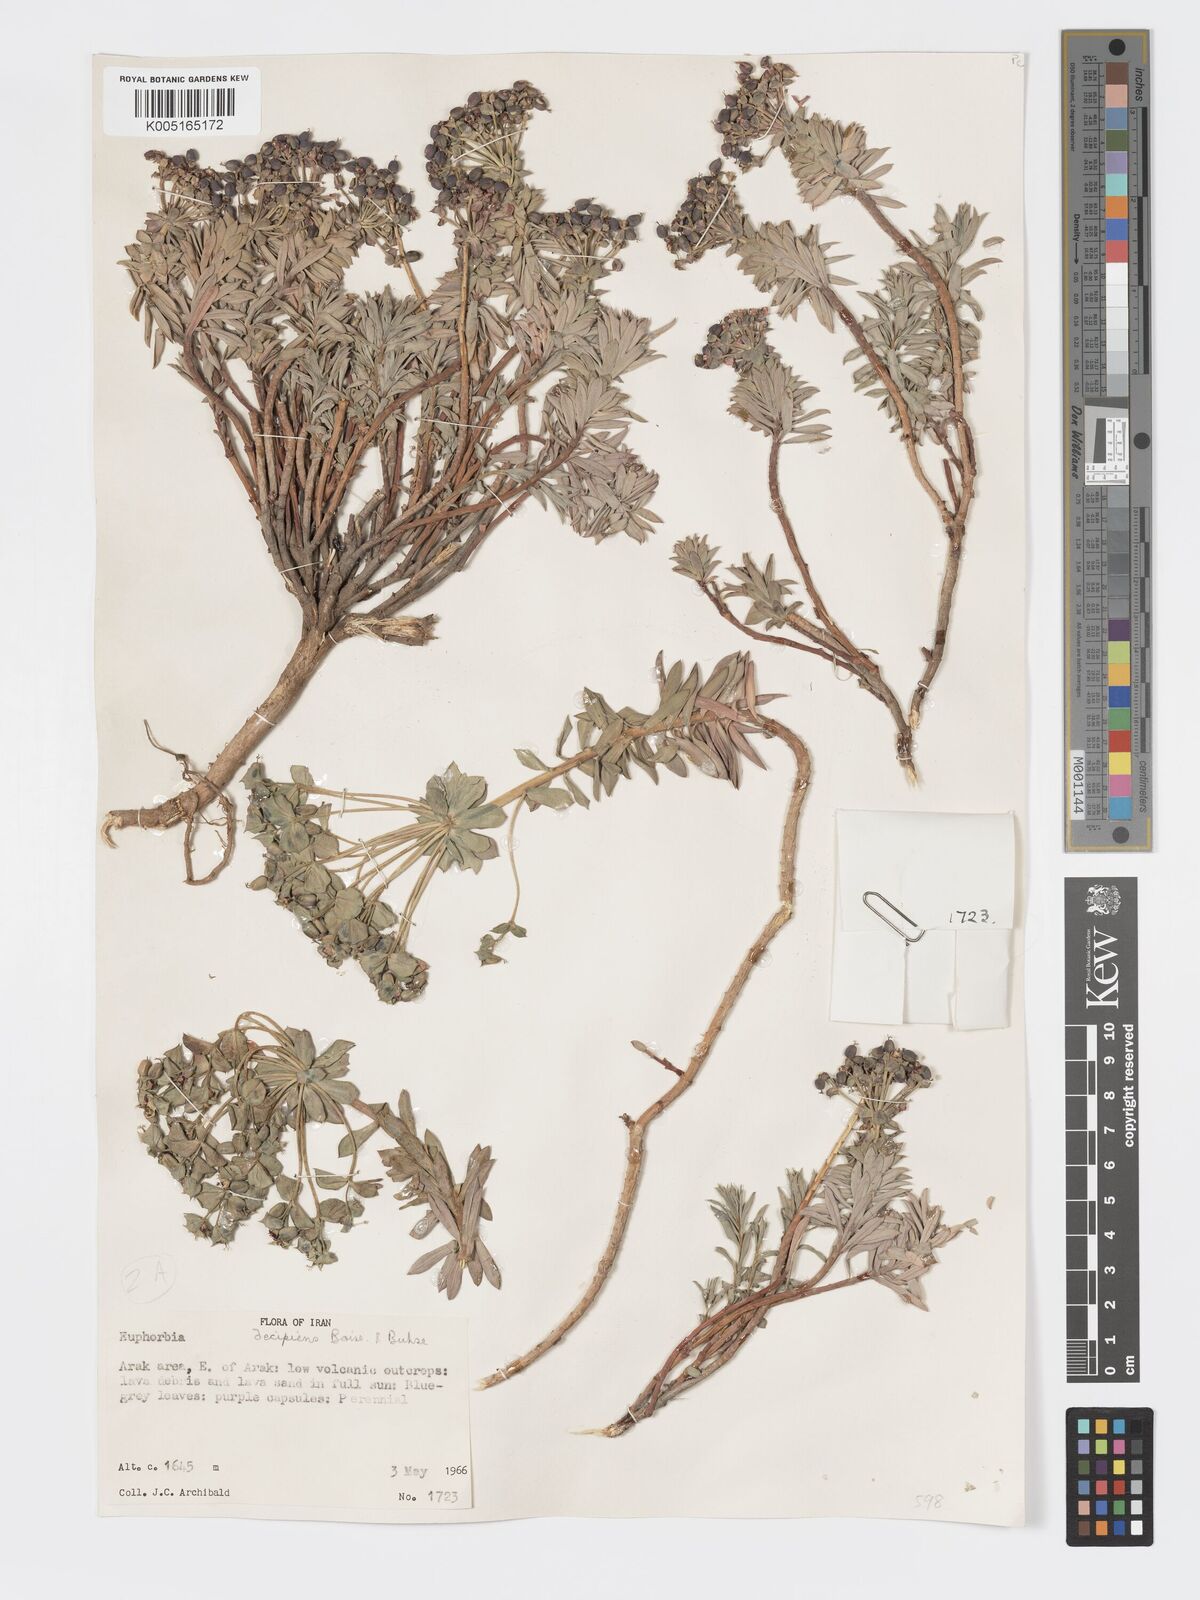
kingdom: Plantae
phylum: Tracheophyta
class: Magnoliopsida
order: Malpighiales
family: Euphorbiaceae
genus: Euphorbia
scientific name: Euphorbia polycaulis
